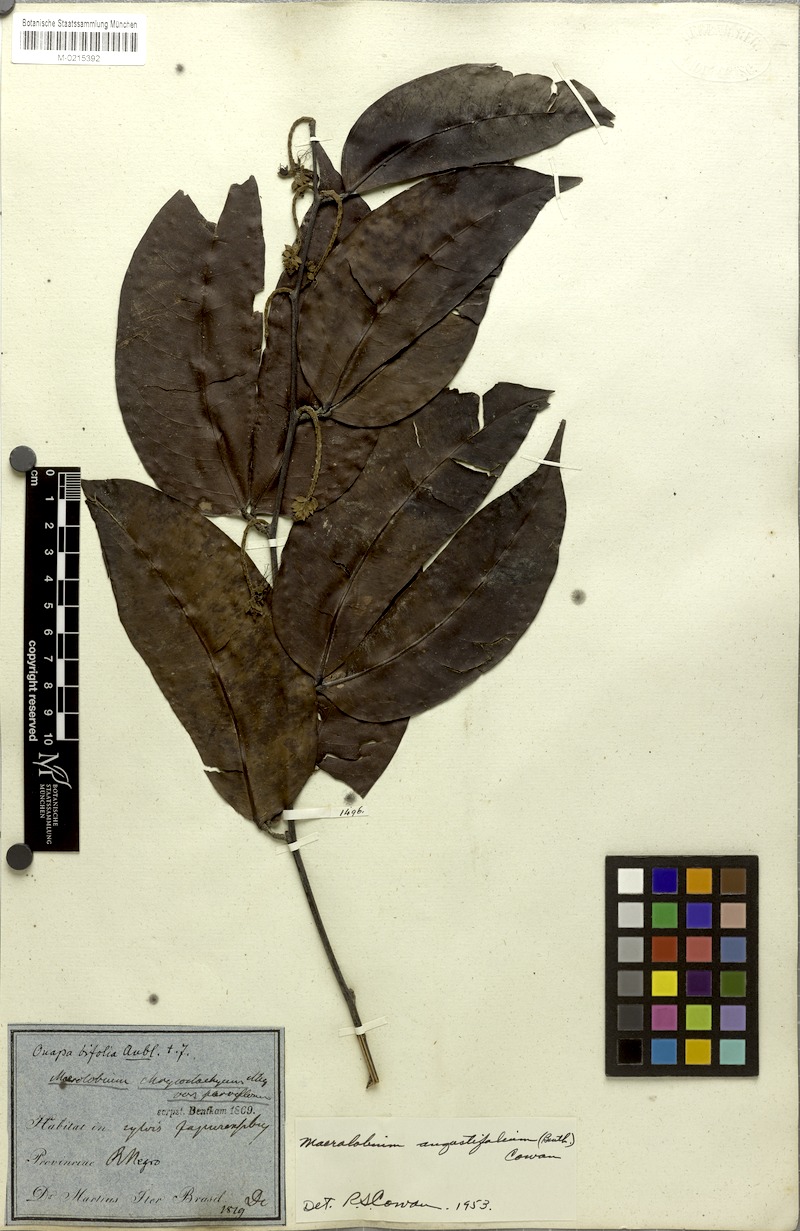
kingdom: Plantae
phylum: Tracheophyta
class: Magnoliopsida
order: Fabales
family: Fabaceae
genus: Macrolobium
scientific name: Macrolobium angustifolium
